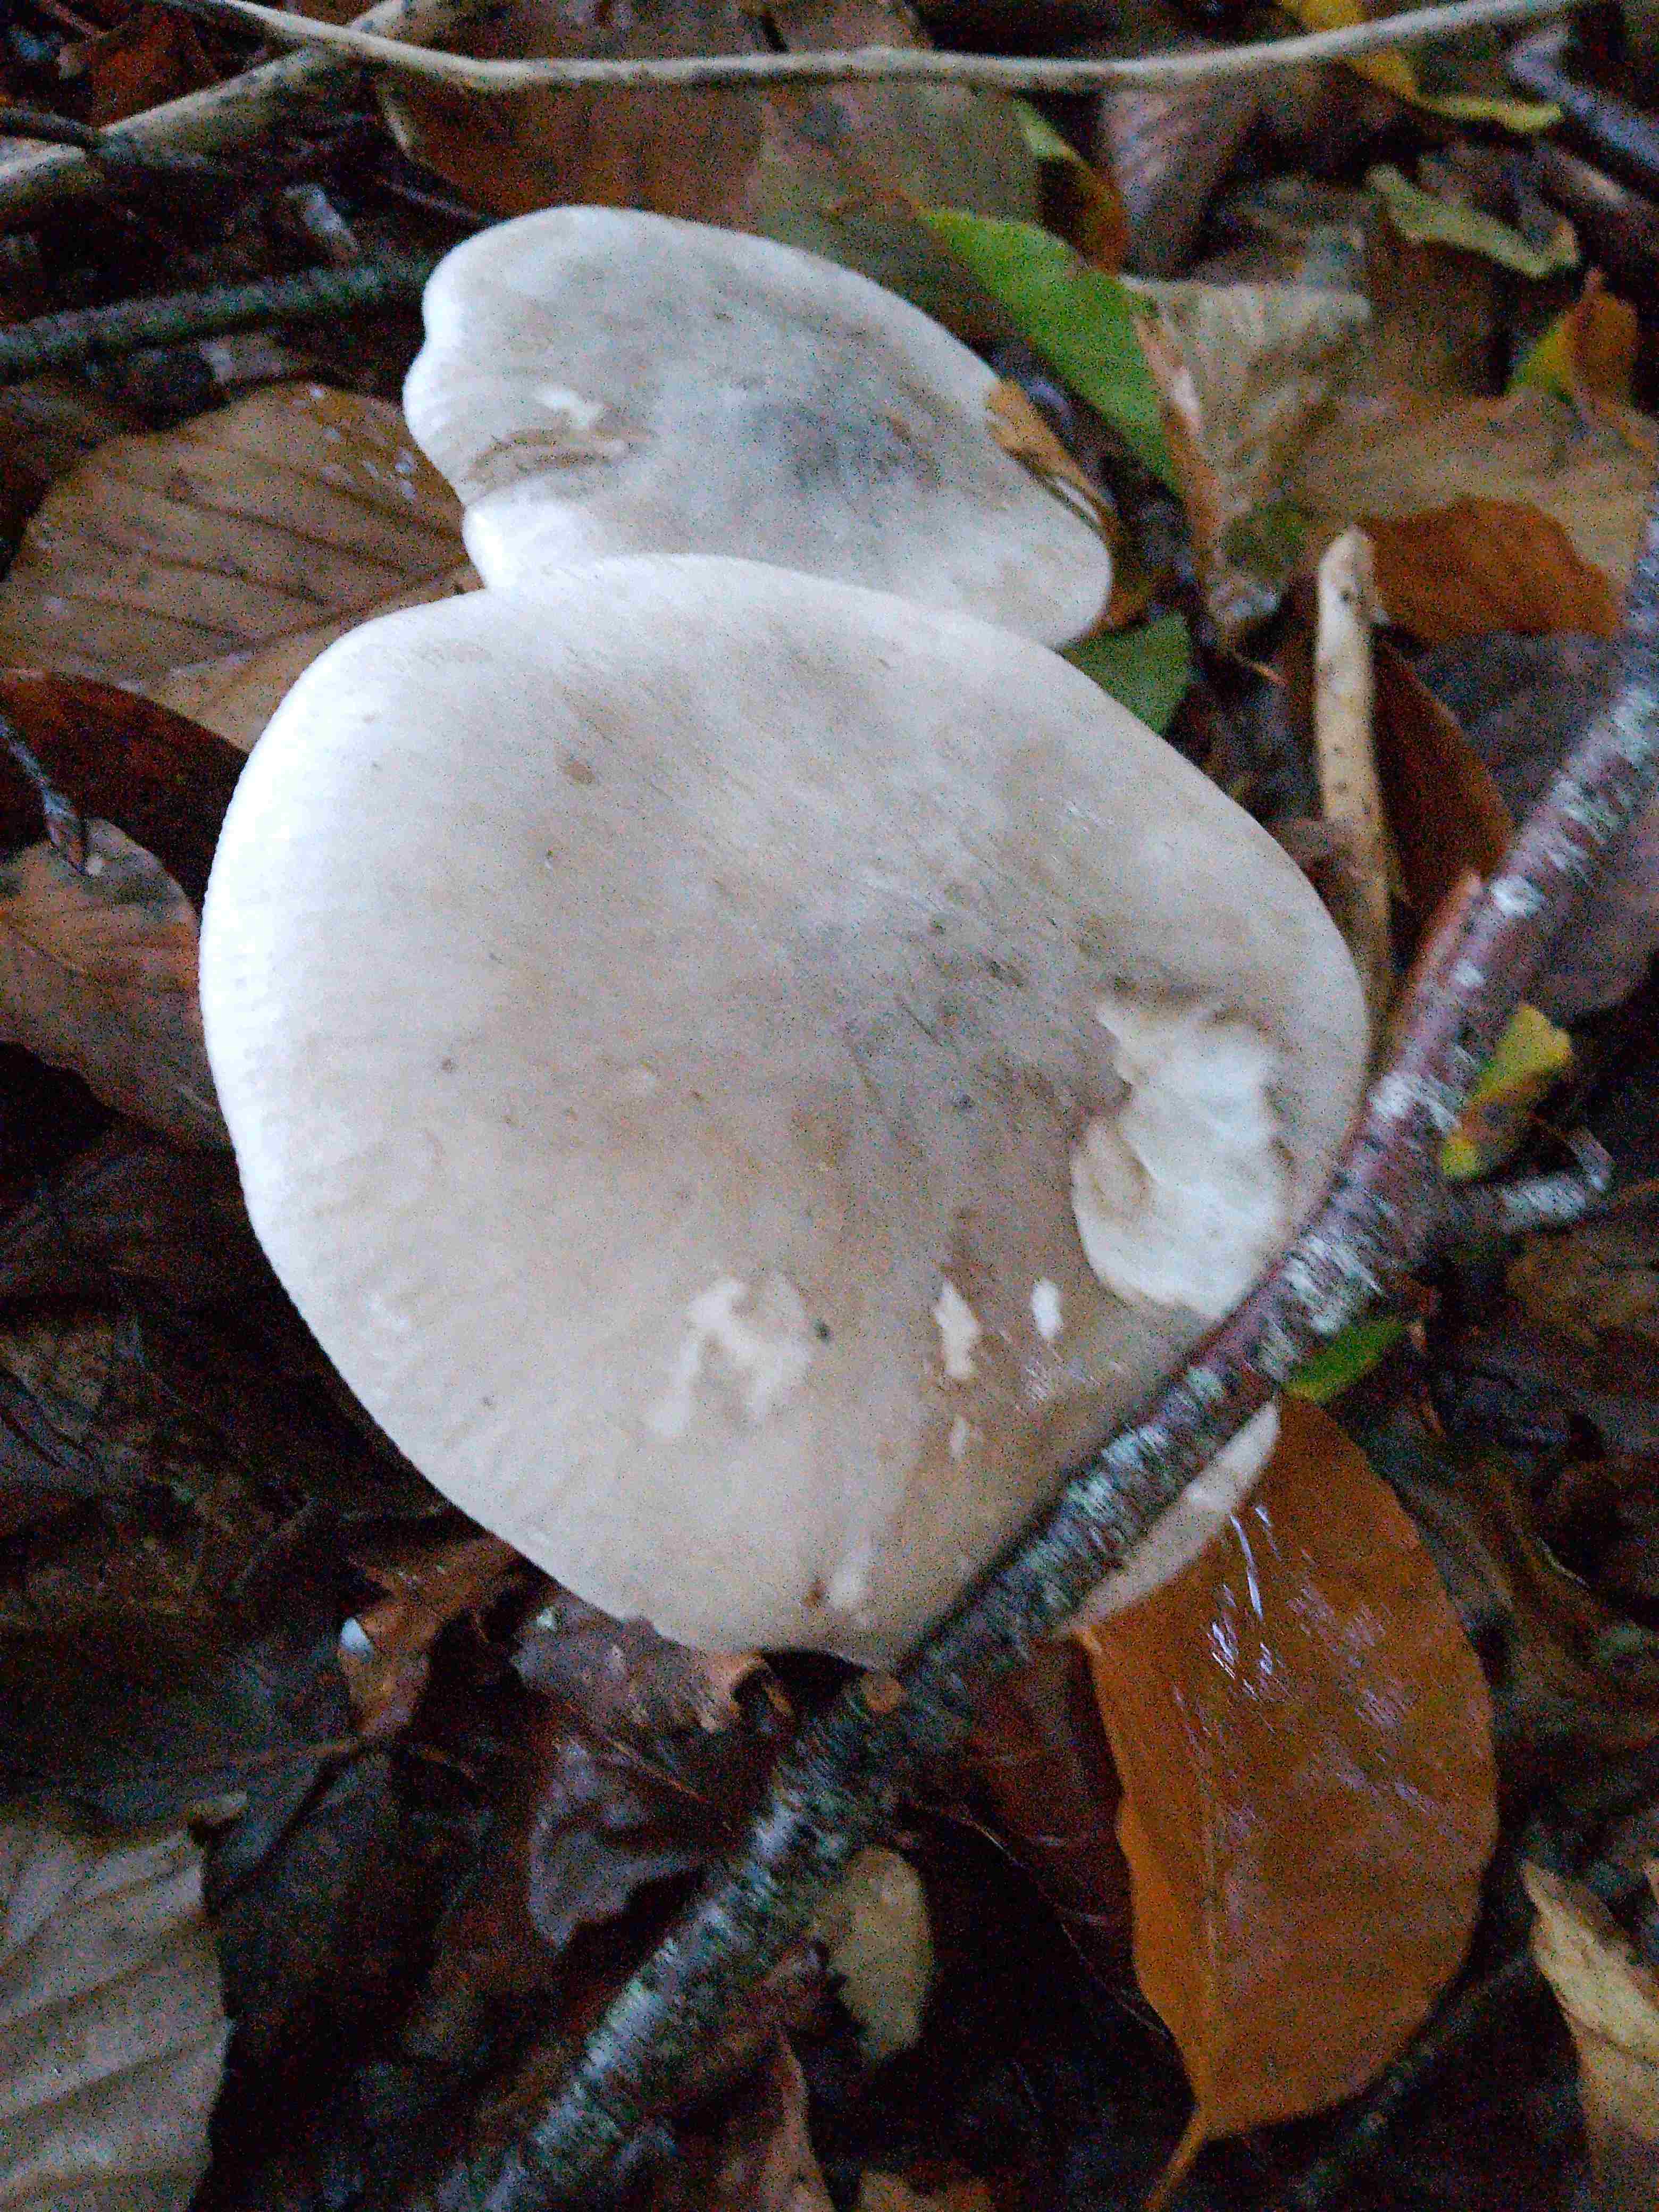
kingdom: Fungi
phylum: Basidiomycota
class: Agaricomycetes
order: Agaricales
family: Tricholomataceae
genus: Clitocybe
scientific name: Clitocybe nebularis
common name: tåge-tragthat
